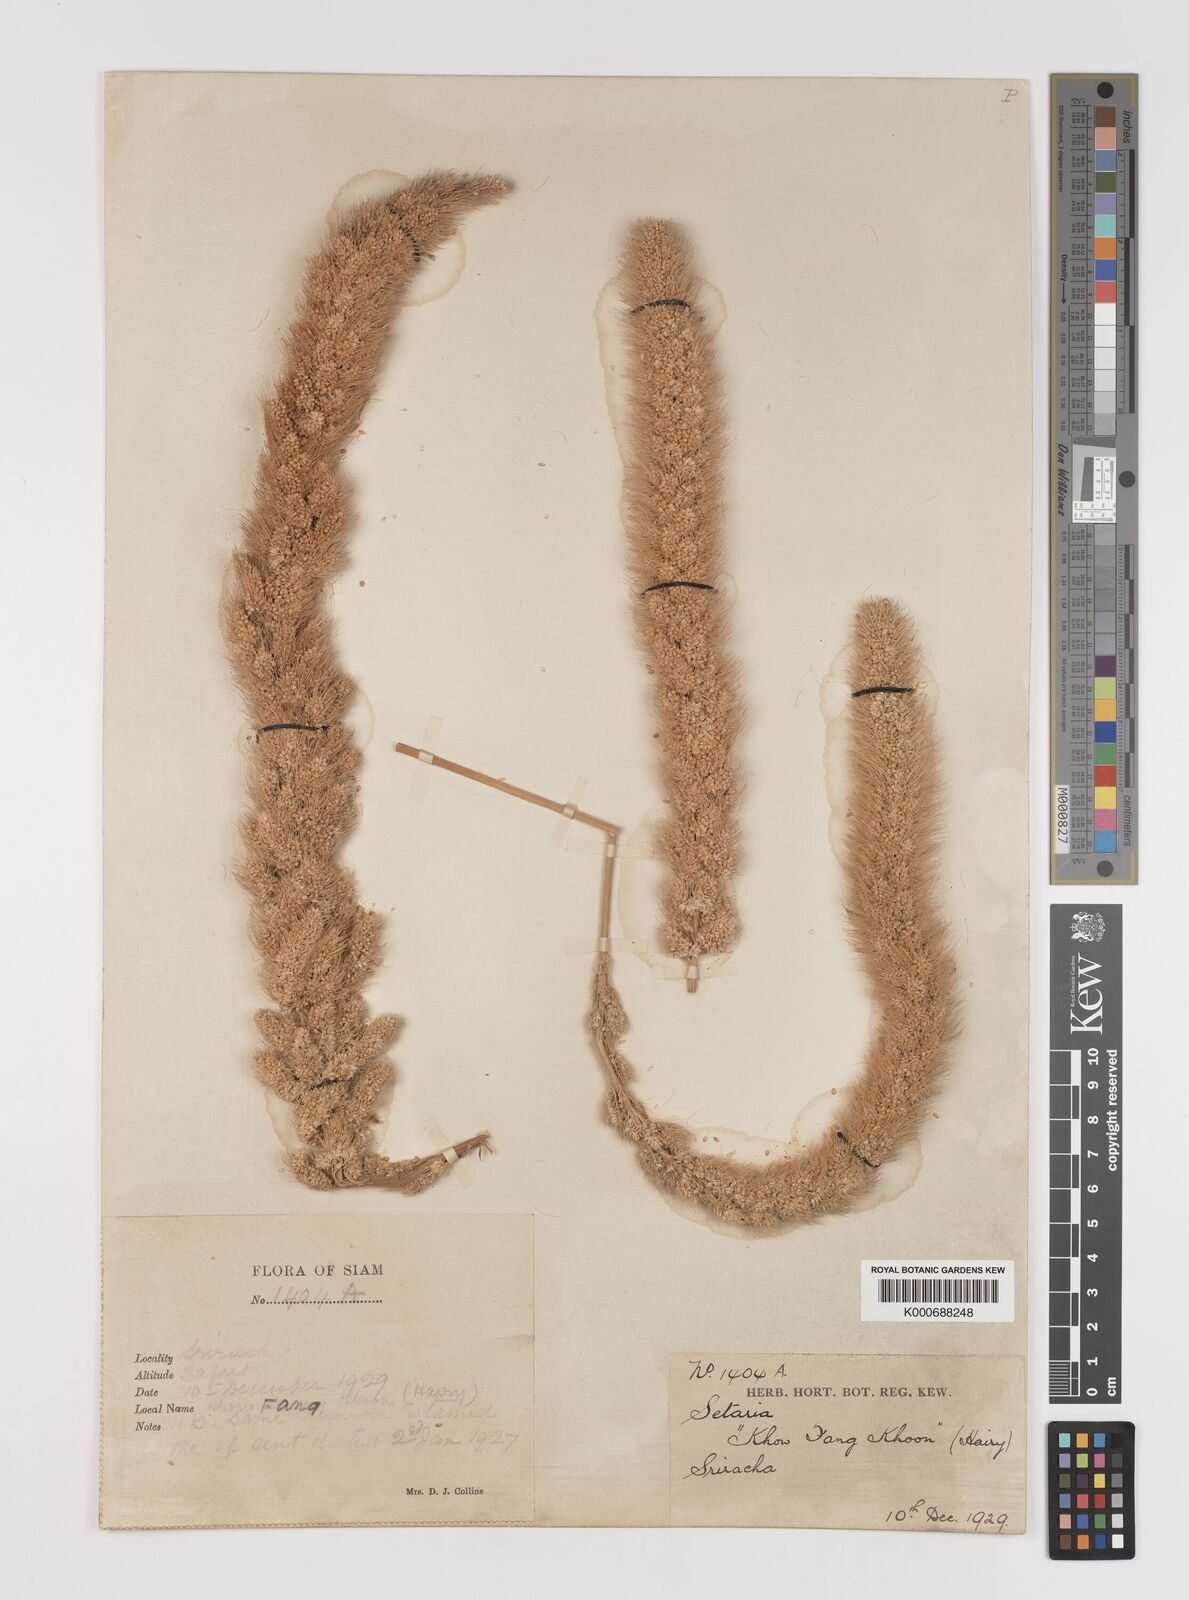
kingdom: Plantae
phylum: Tracheophyta
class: Liliopsida
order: Poales
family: Poaceae
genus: Setaria
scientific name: Setaria italica
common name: Foxtail bristle-grass
